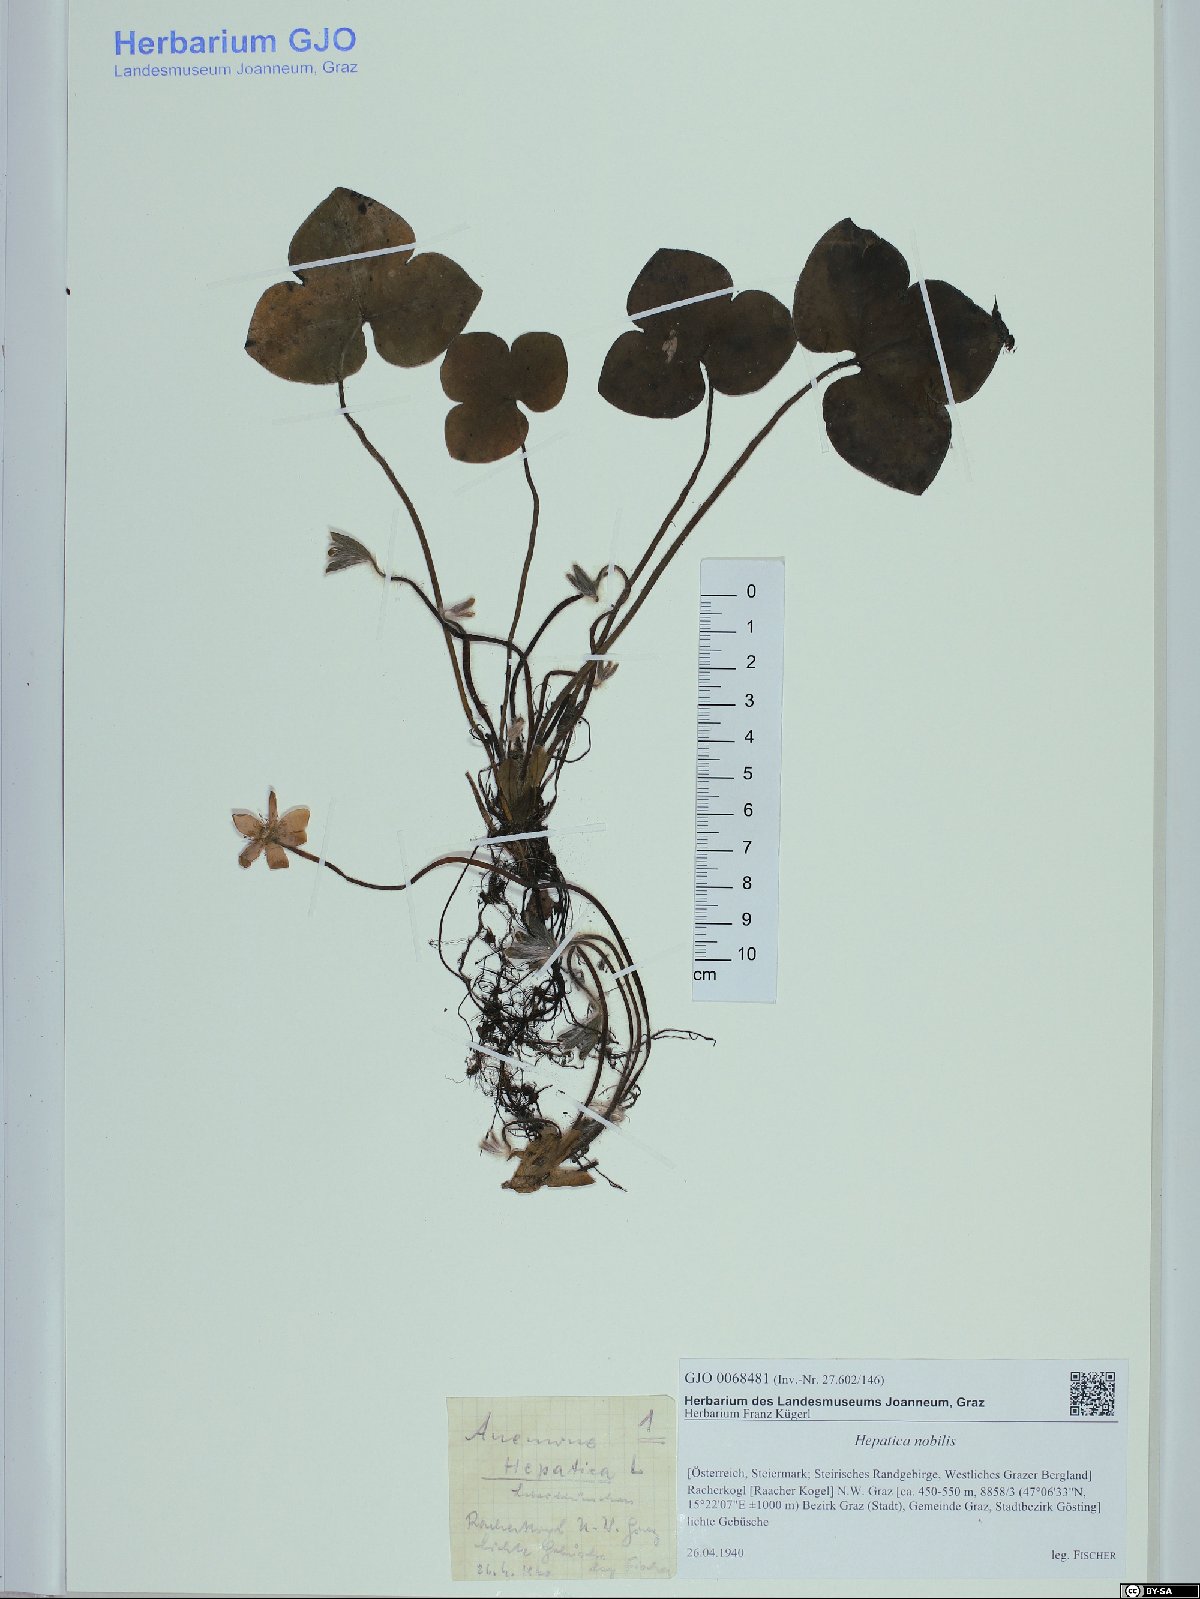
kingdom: Plantae
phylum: Tracheophyta
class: Magnoliopsida
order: Ranunculales
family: Ranunculaceae
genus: Hepatica
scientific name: Hepatica nobilis
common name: Liverleaf
